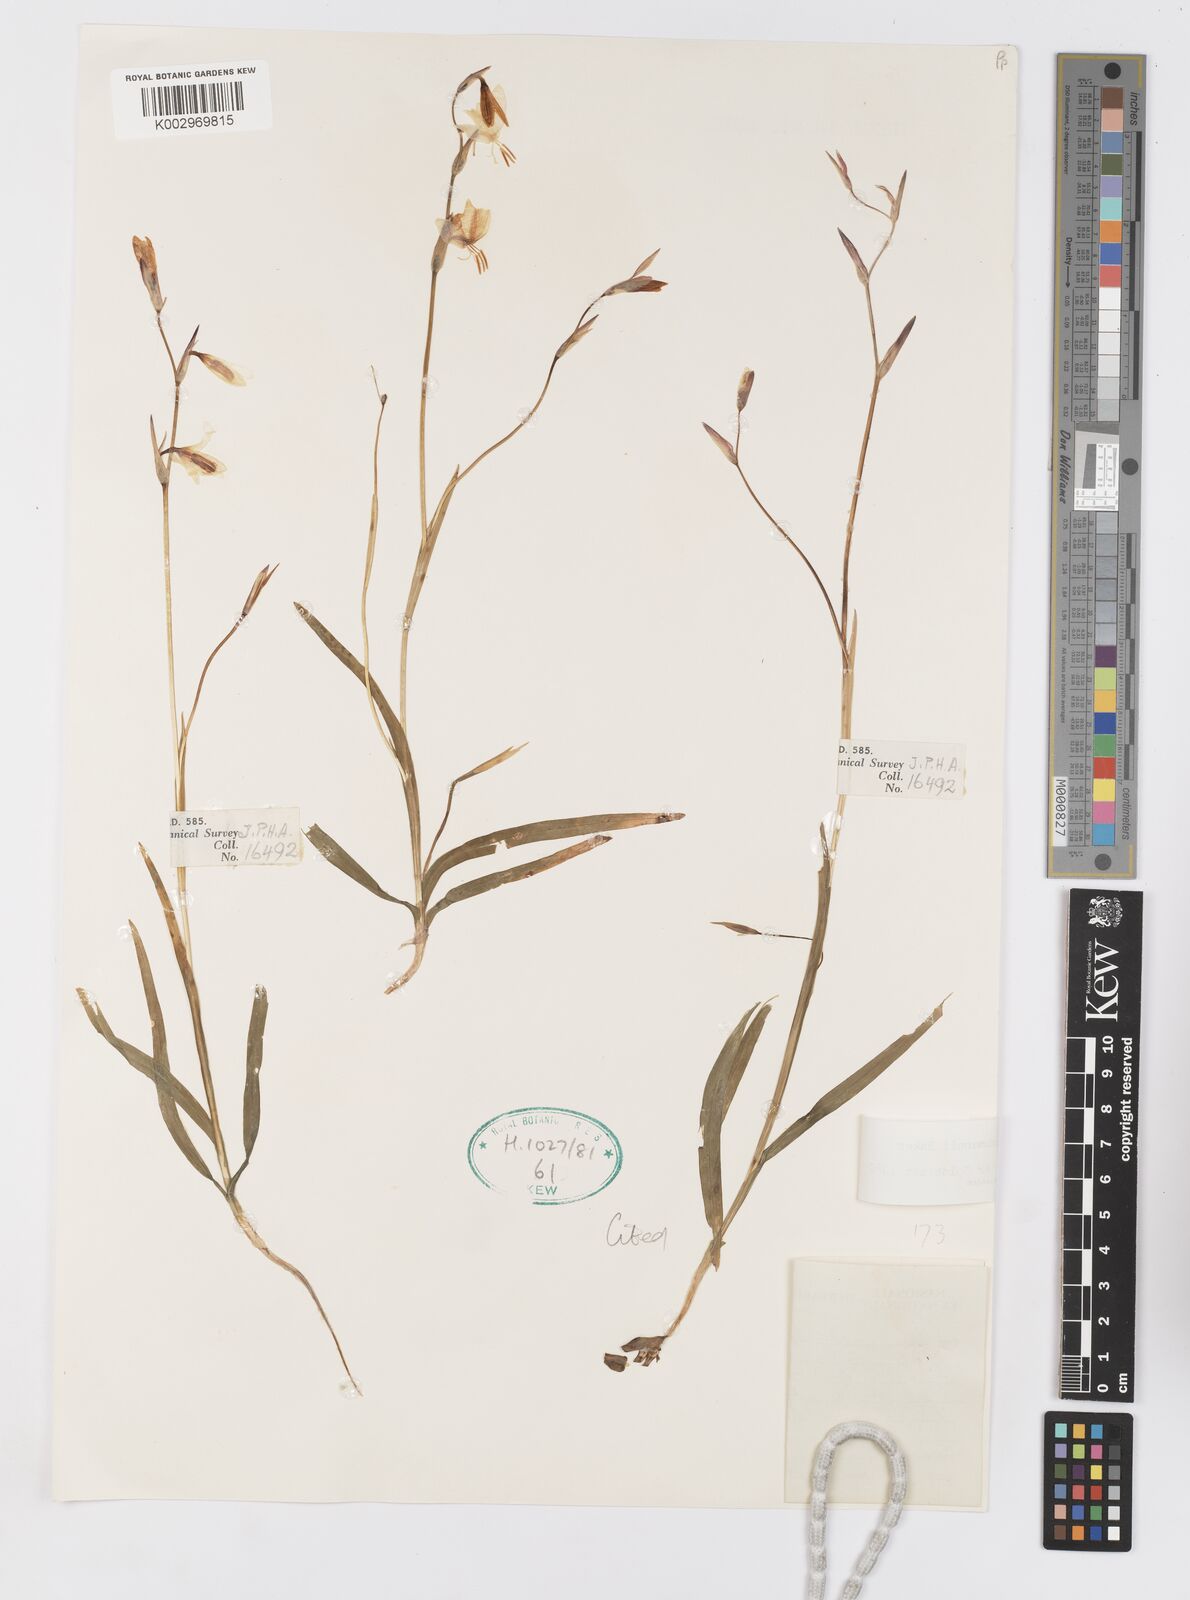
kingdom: Plantae
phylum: Tracheophyta
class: Liliopsida
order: Asparagales
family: Iridaceae
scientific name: Iridaceae
